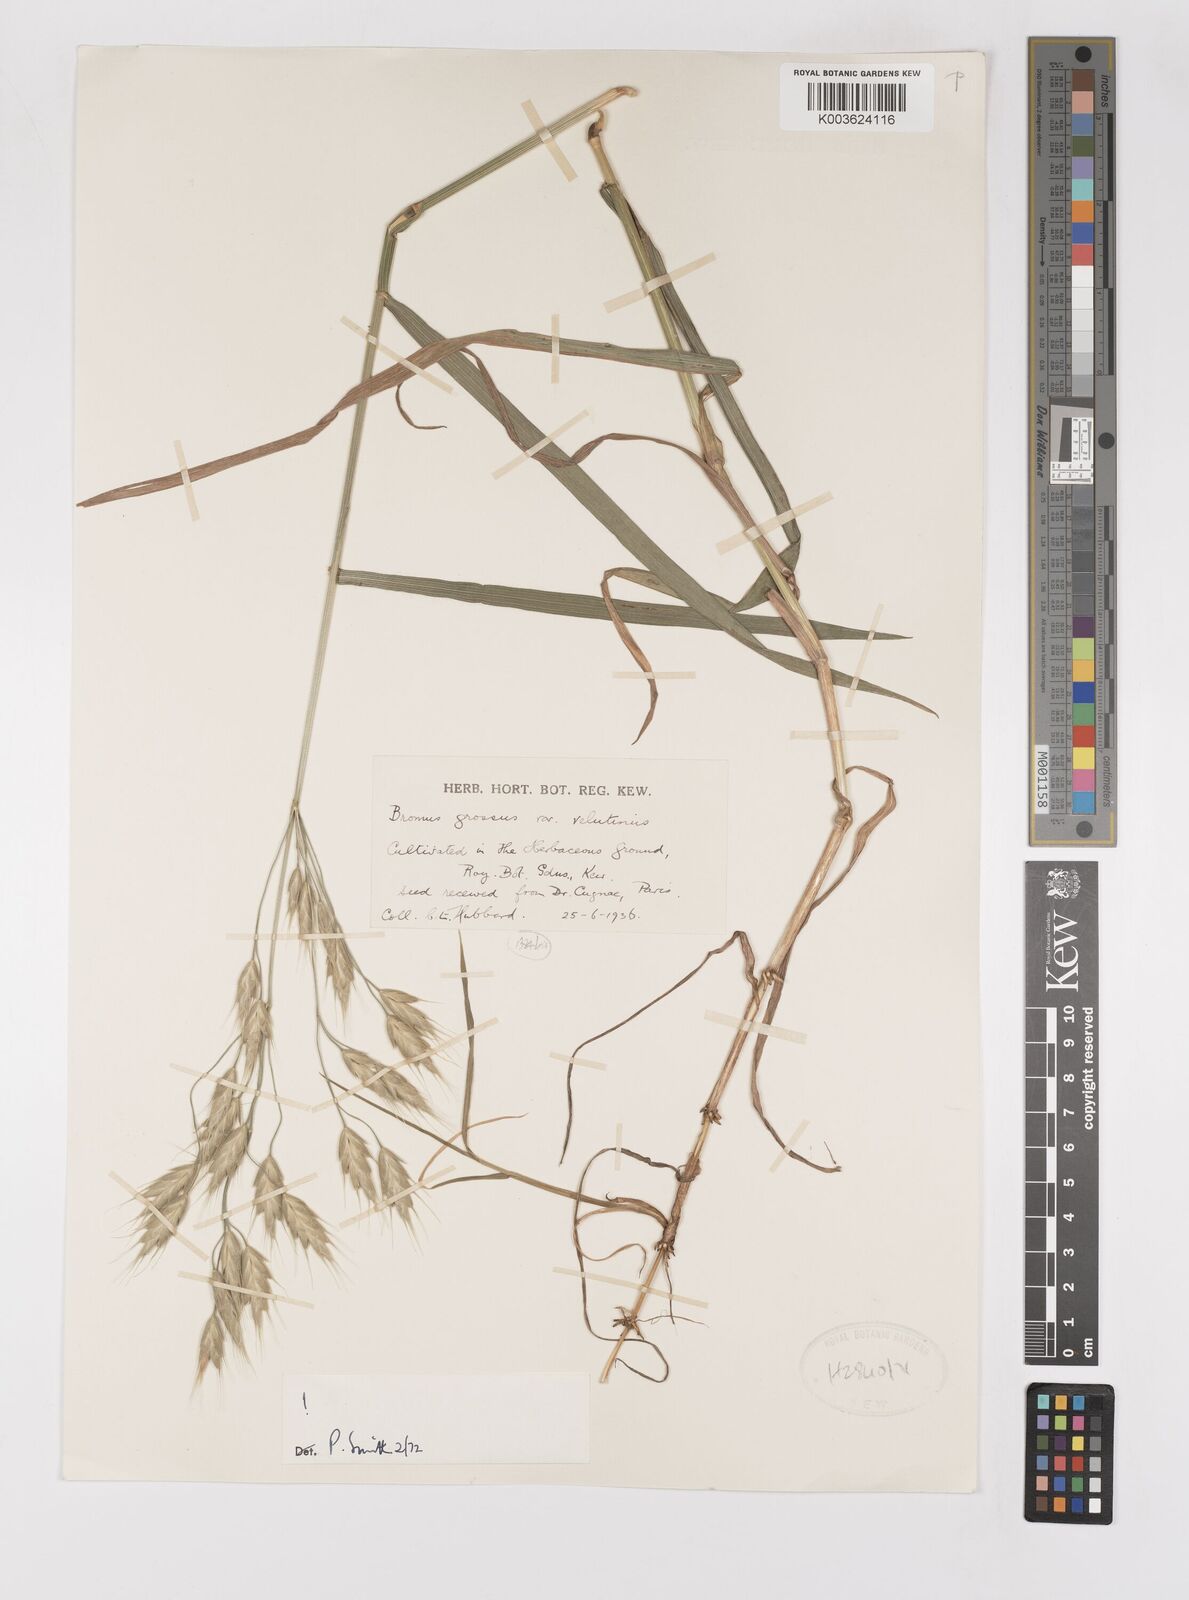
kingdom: Plantae
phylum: Tracheophyta
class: Liliopsida
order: Poales
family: Poaceae
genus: Bromus
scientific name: Bromus grossus
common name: Whiskered brome
